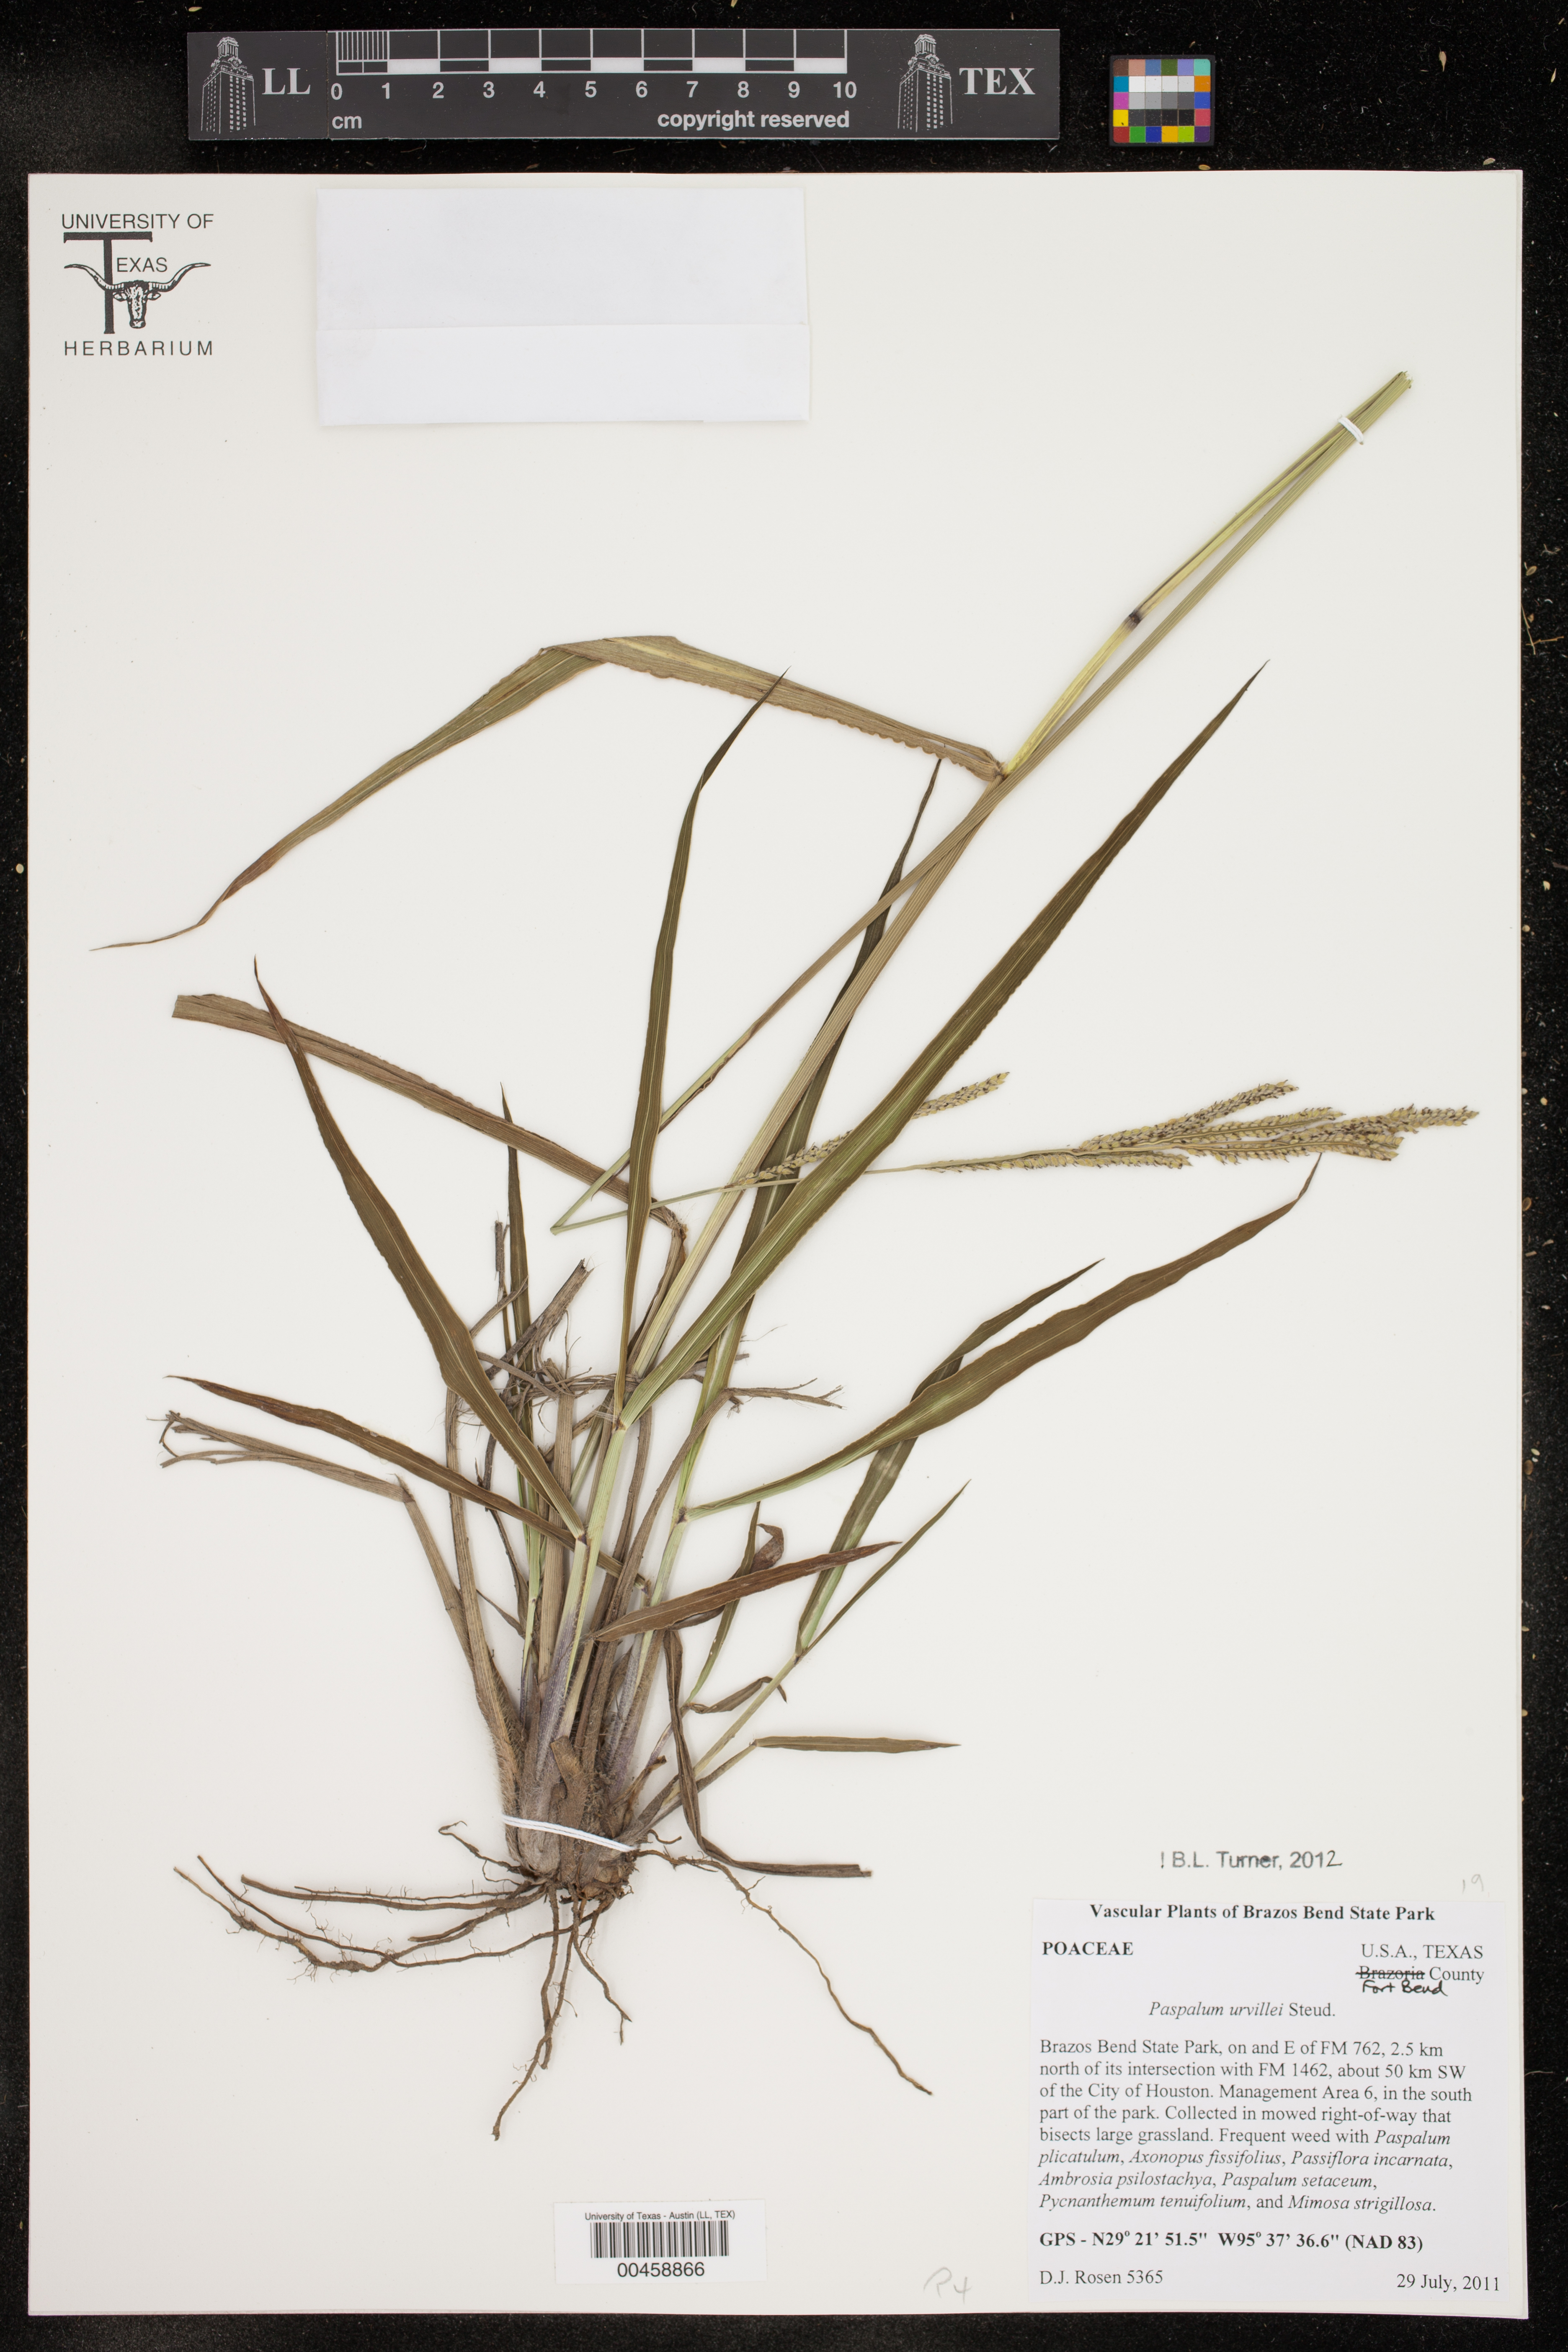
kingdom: Plantae
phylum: Tracheophyta
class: Liliopsida
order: Poales
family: Poaceae
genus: Paspalum
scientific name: Paspalum urvillei
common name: Vasey's grass
